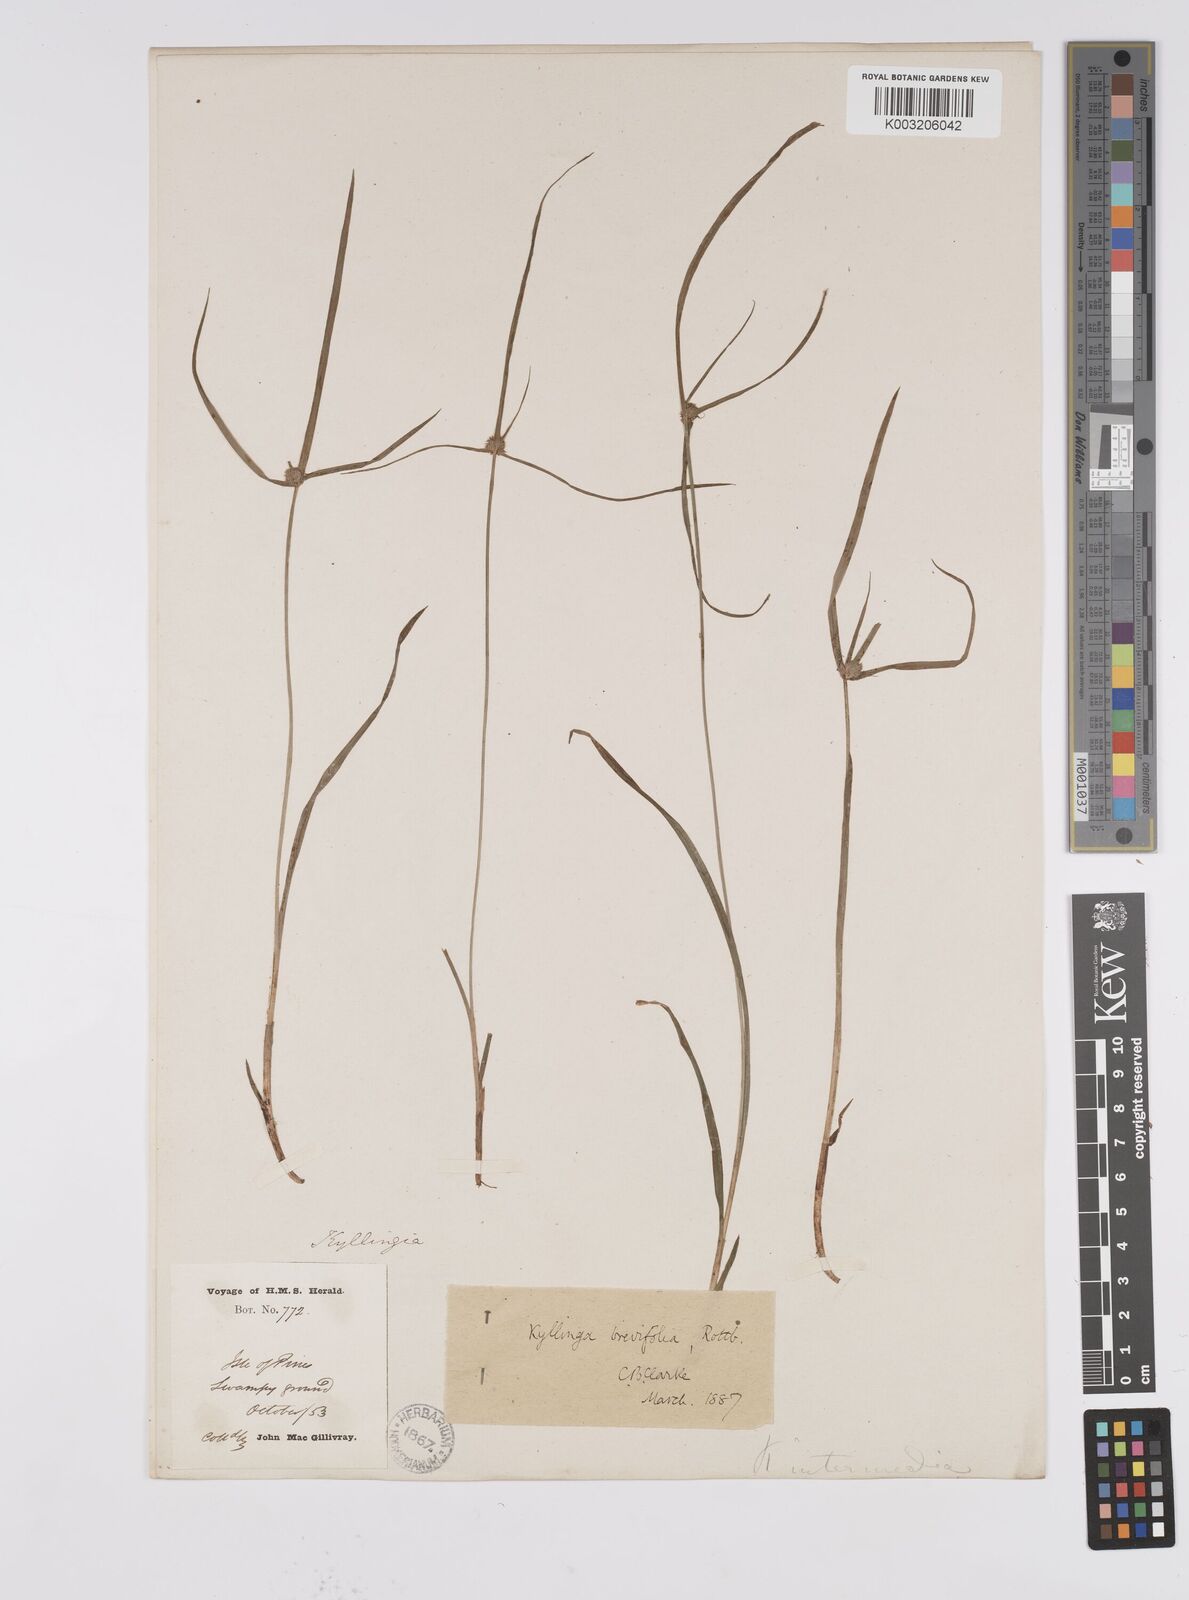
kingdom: Plantae
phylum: Tracheophyta
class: Liliopsida
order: Poales
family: Cyperaceae
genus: Cyperus
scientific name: Cyperus brevifolius
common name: Globe kyllinga
